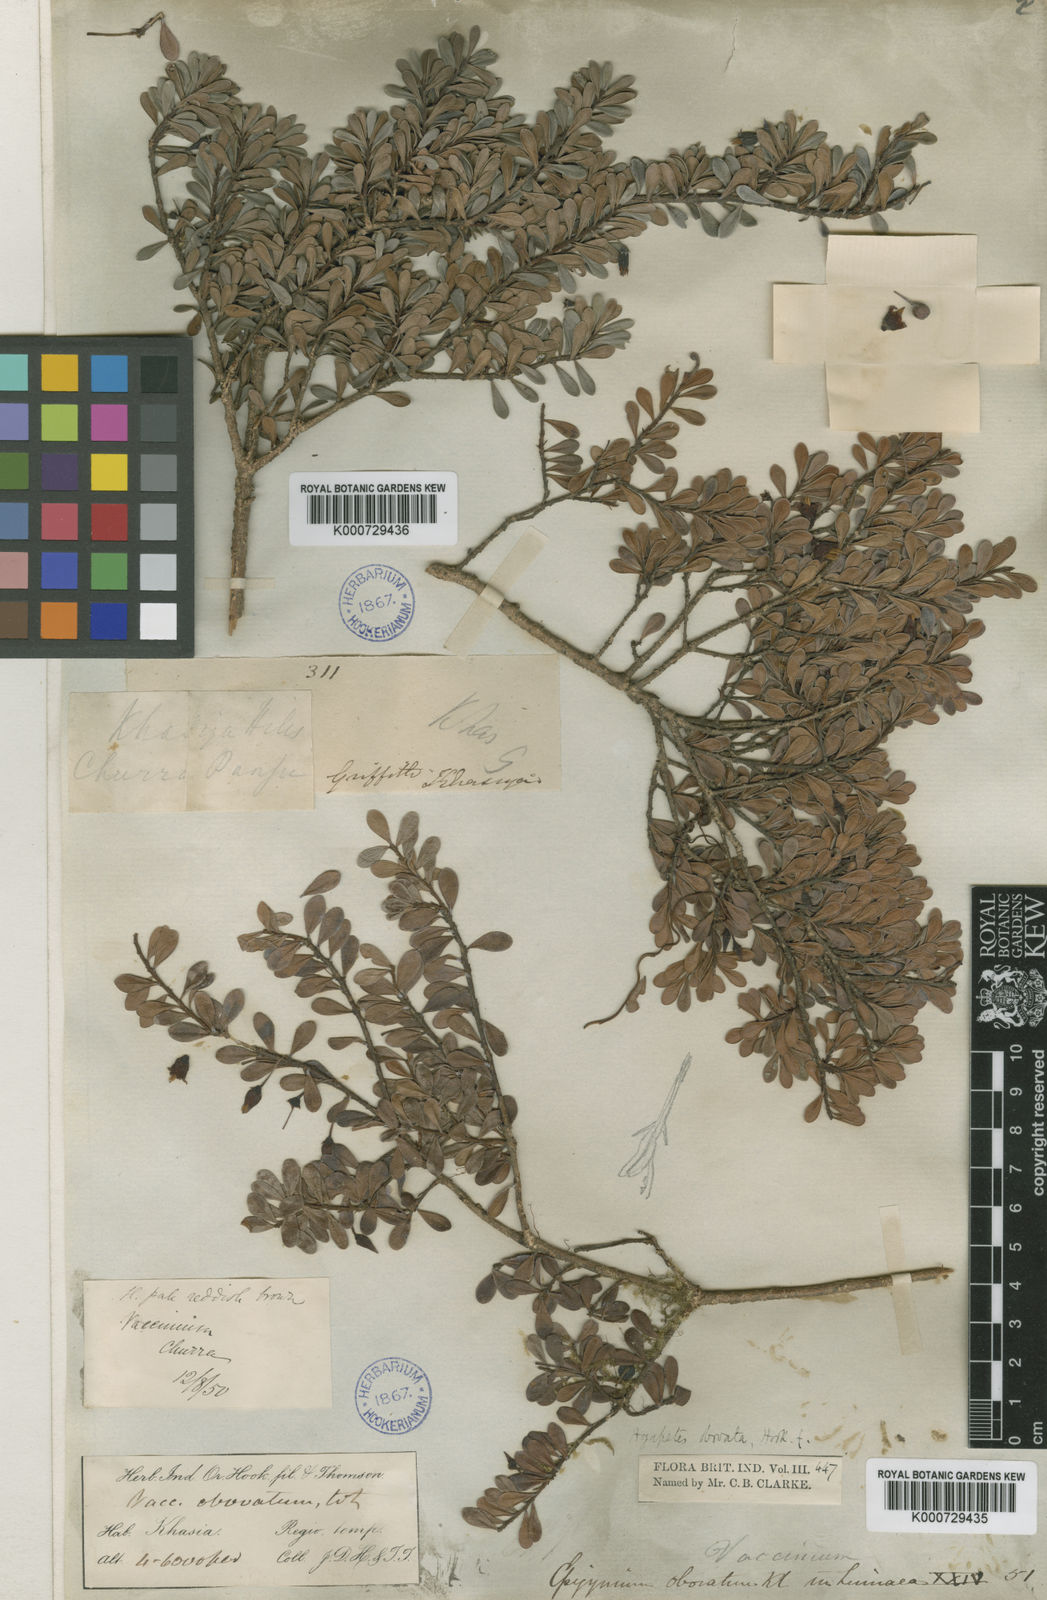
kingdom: Plantae
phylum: Tracheophyta
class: Magnoliopsida
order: Ericales
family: Ericaceae
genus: Agapetes
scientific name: Agapetes obovata
